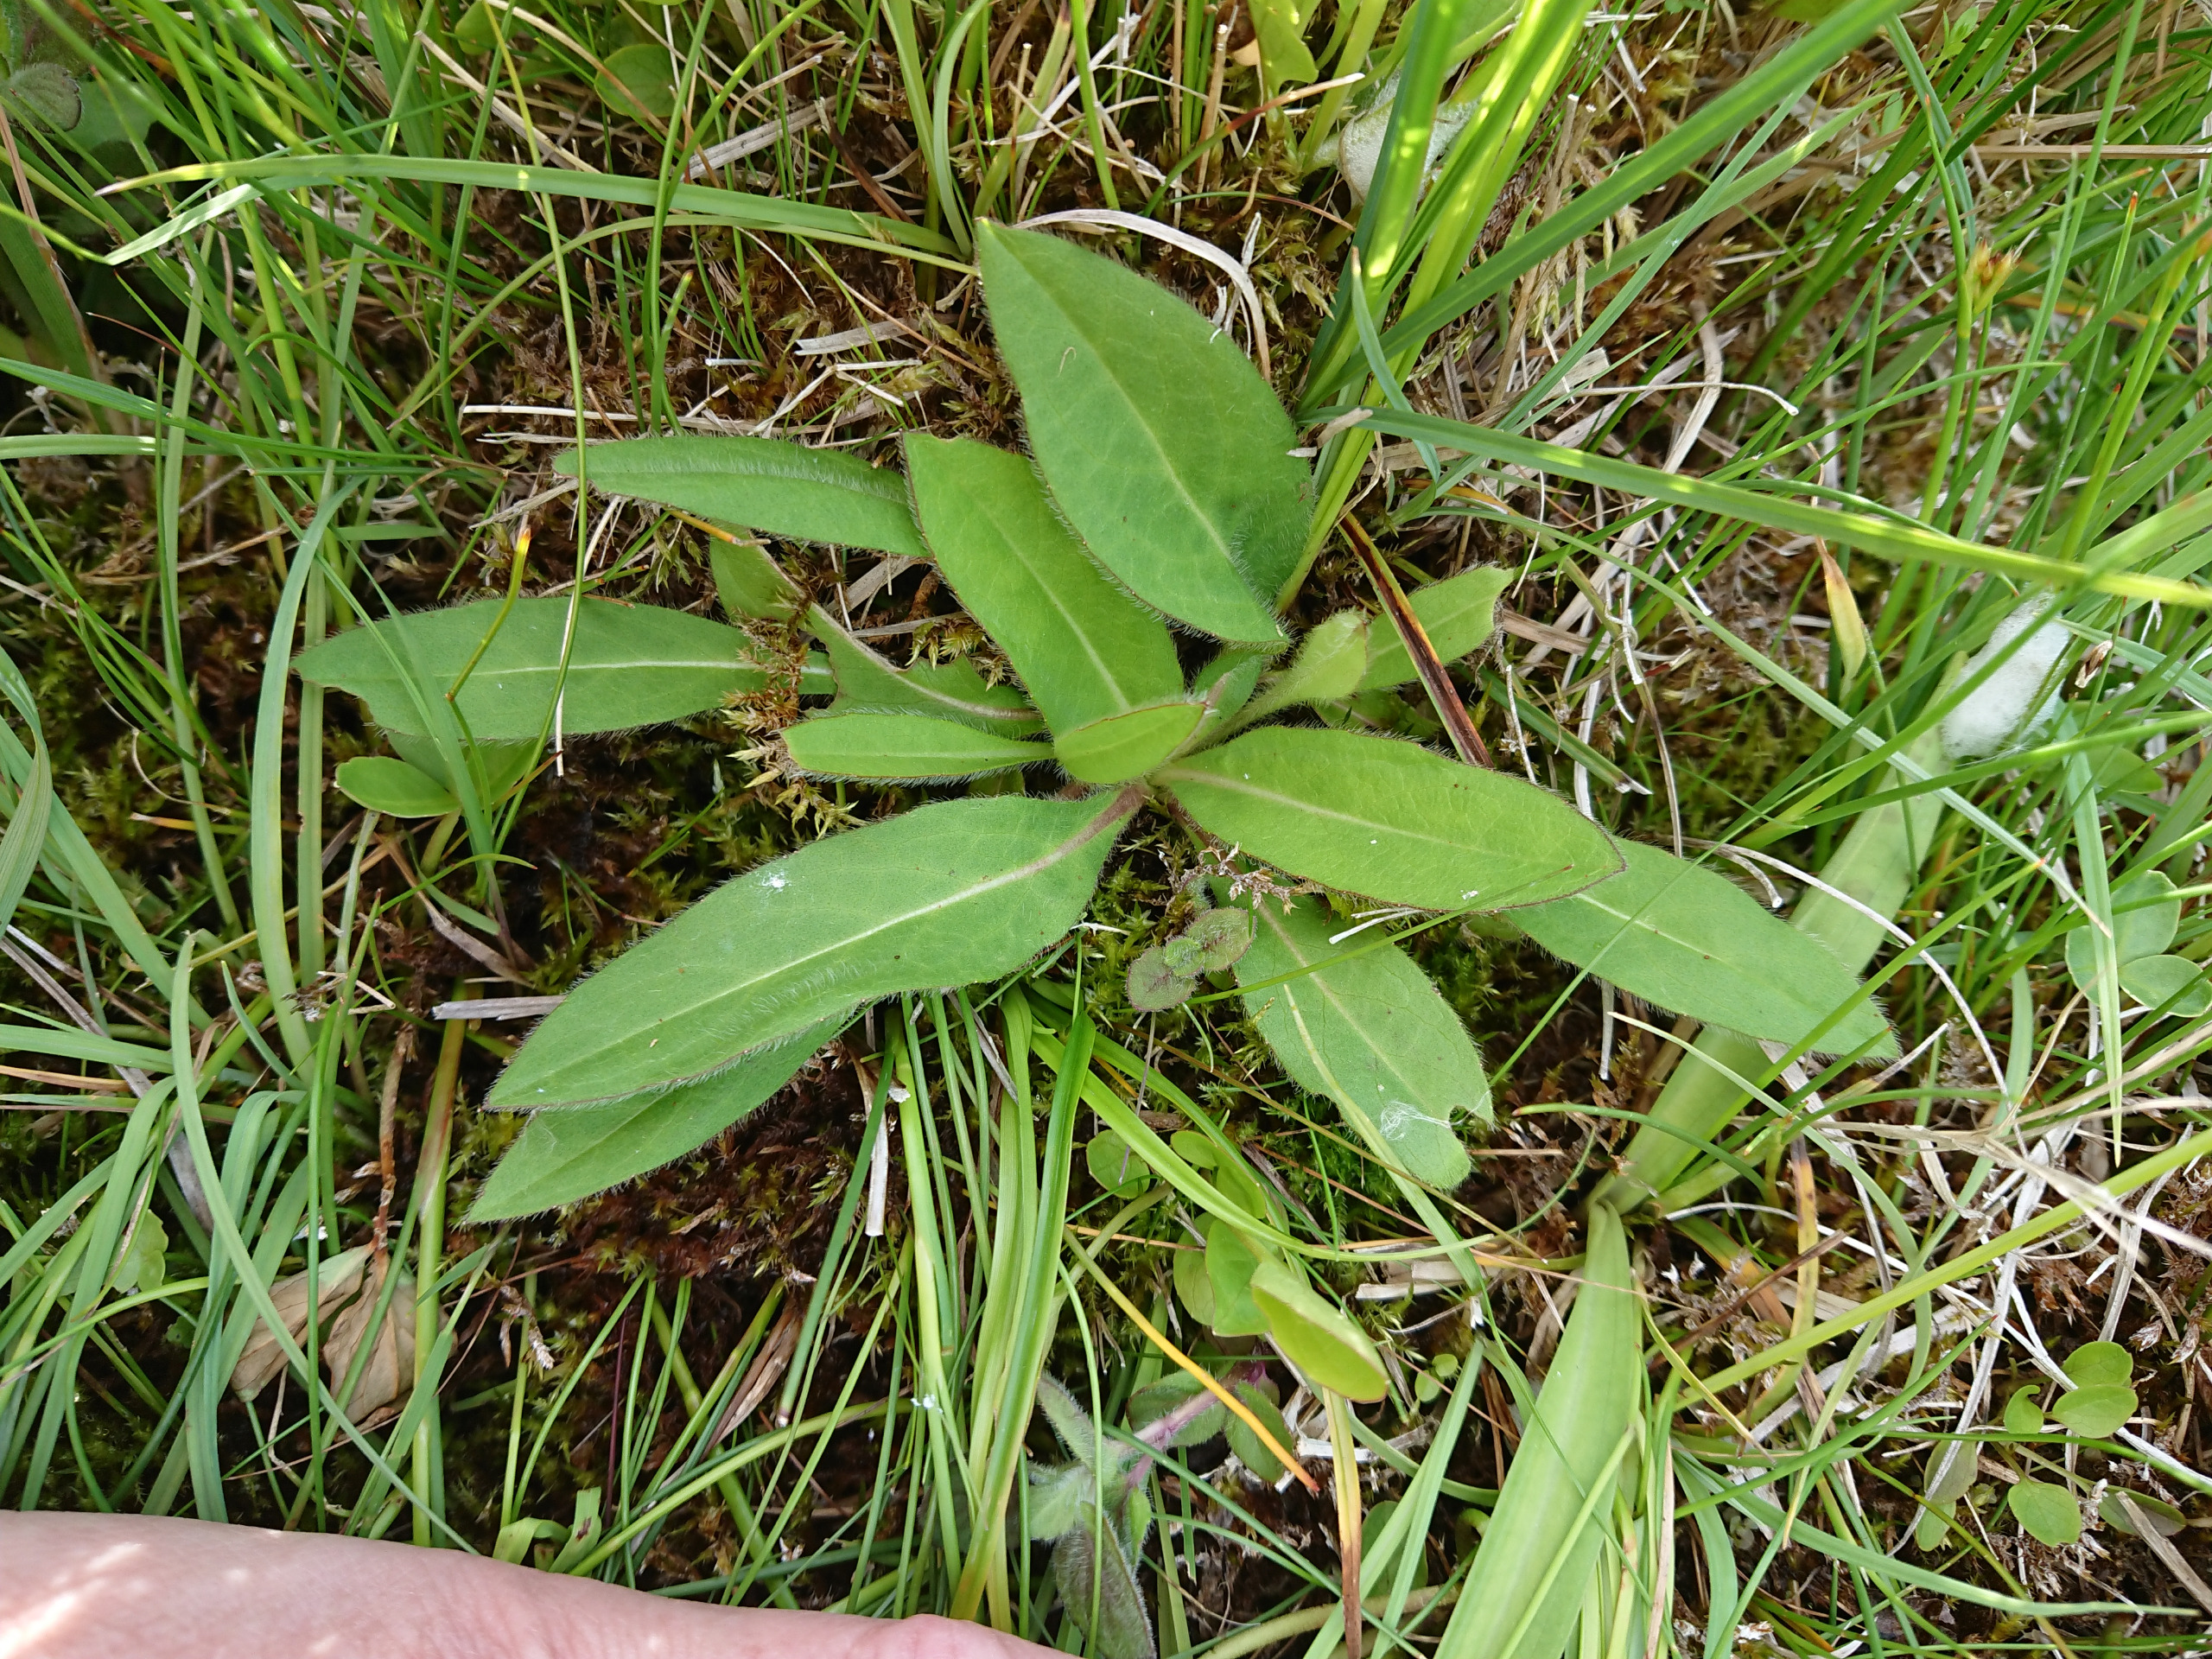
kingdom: Plantae
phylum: Tracheophyta
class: Magnoliopsida
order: Dipsacales
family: Caprifoliaceae
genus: Succisa
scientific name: Succisa pratensis
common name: Djævelsbid
